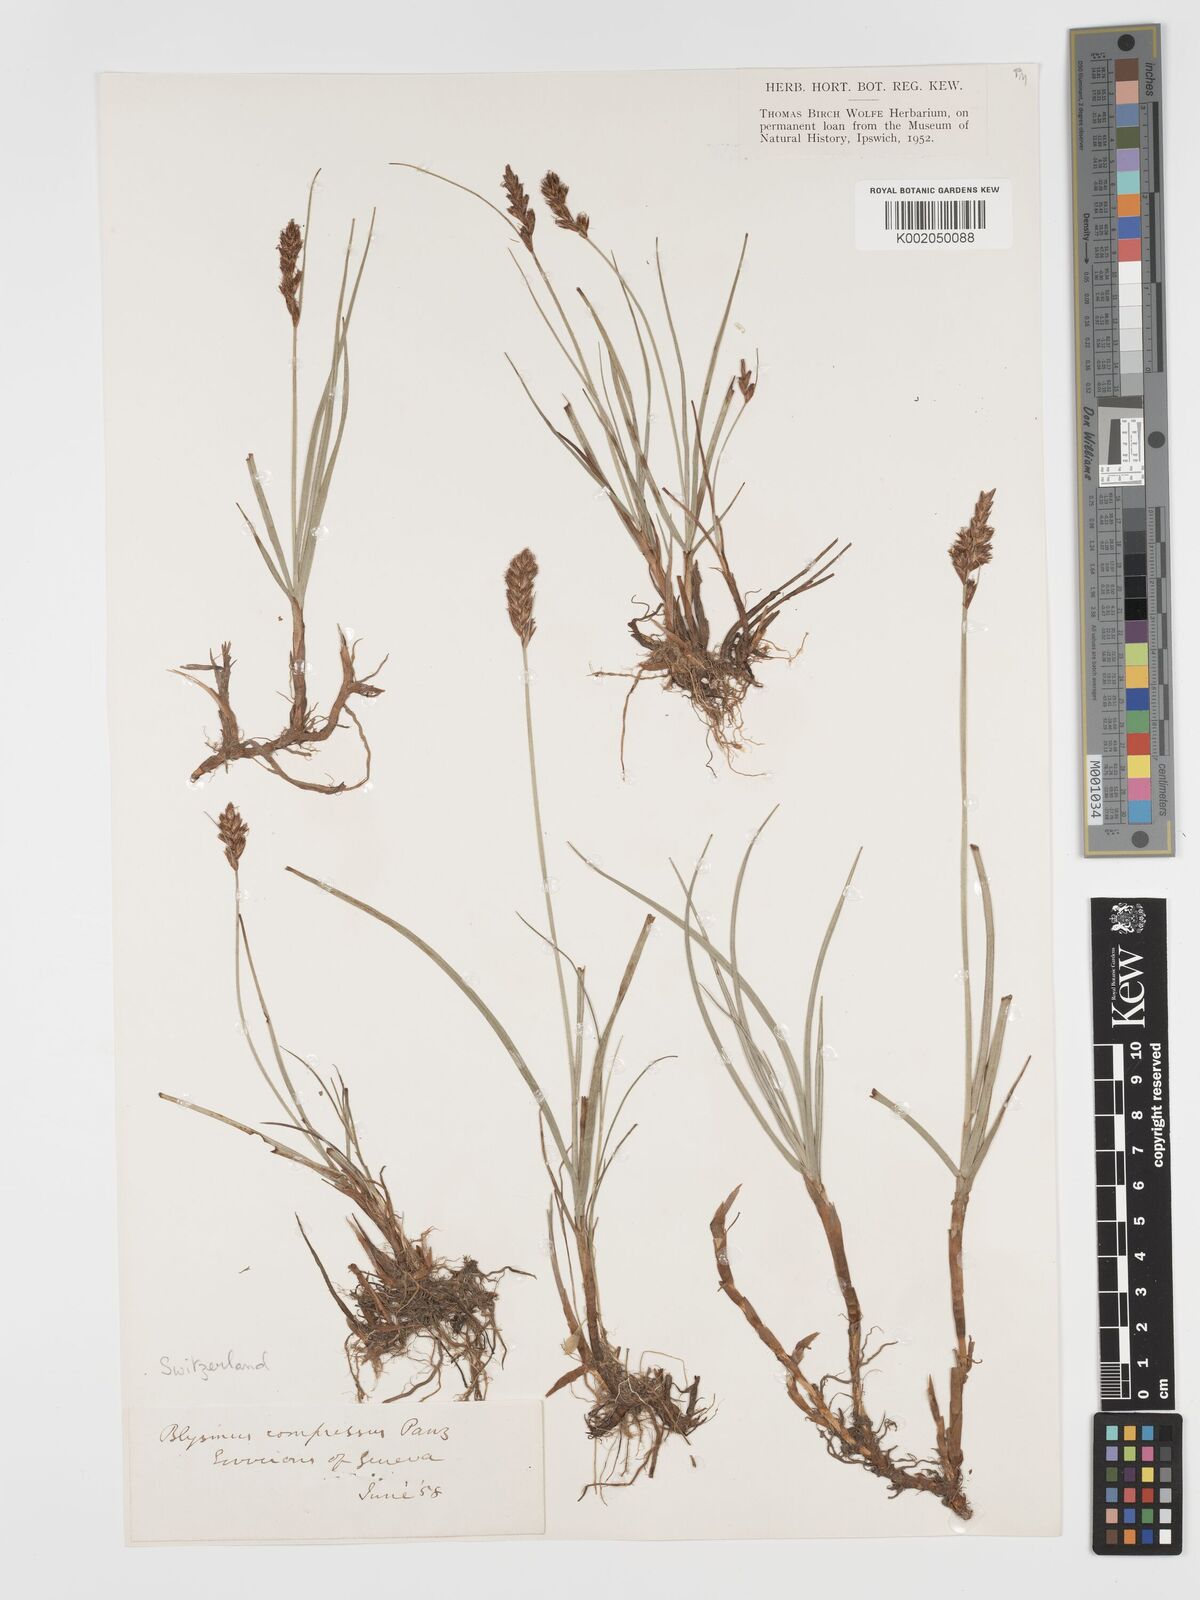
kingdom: Plantae
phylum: Tracheophyta
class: Liliopsida
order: Poales
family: Cyperaceae
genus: Blysmus
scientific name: Blysmus compressus
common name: Flat-sedge
